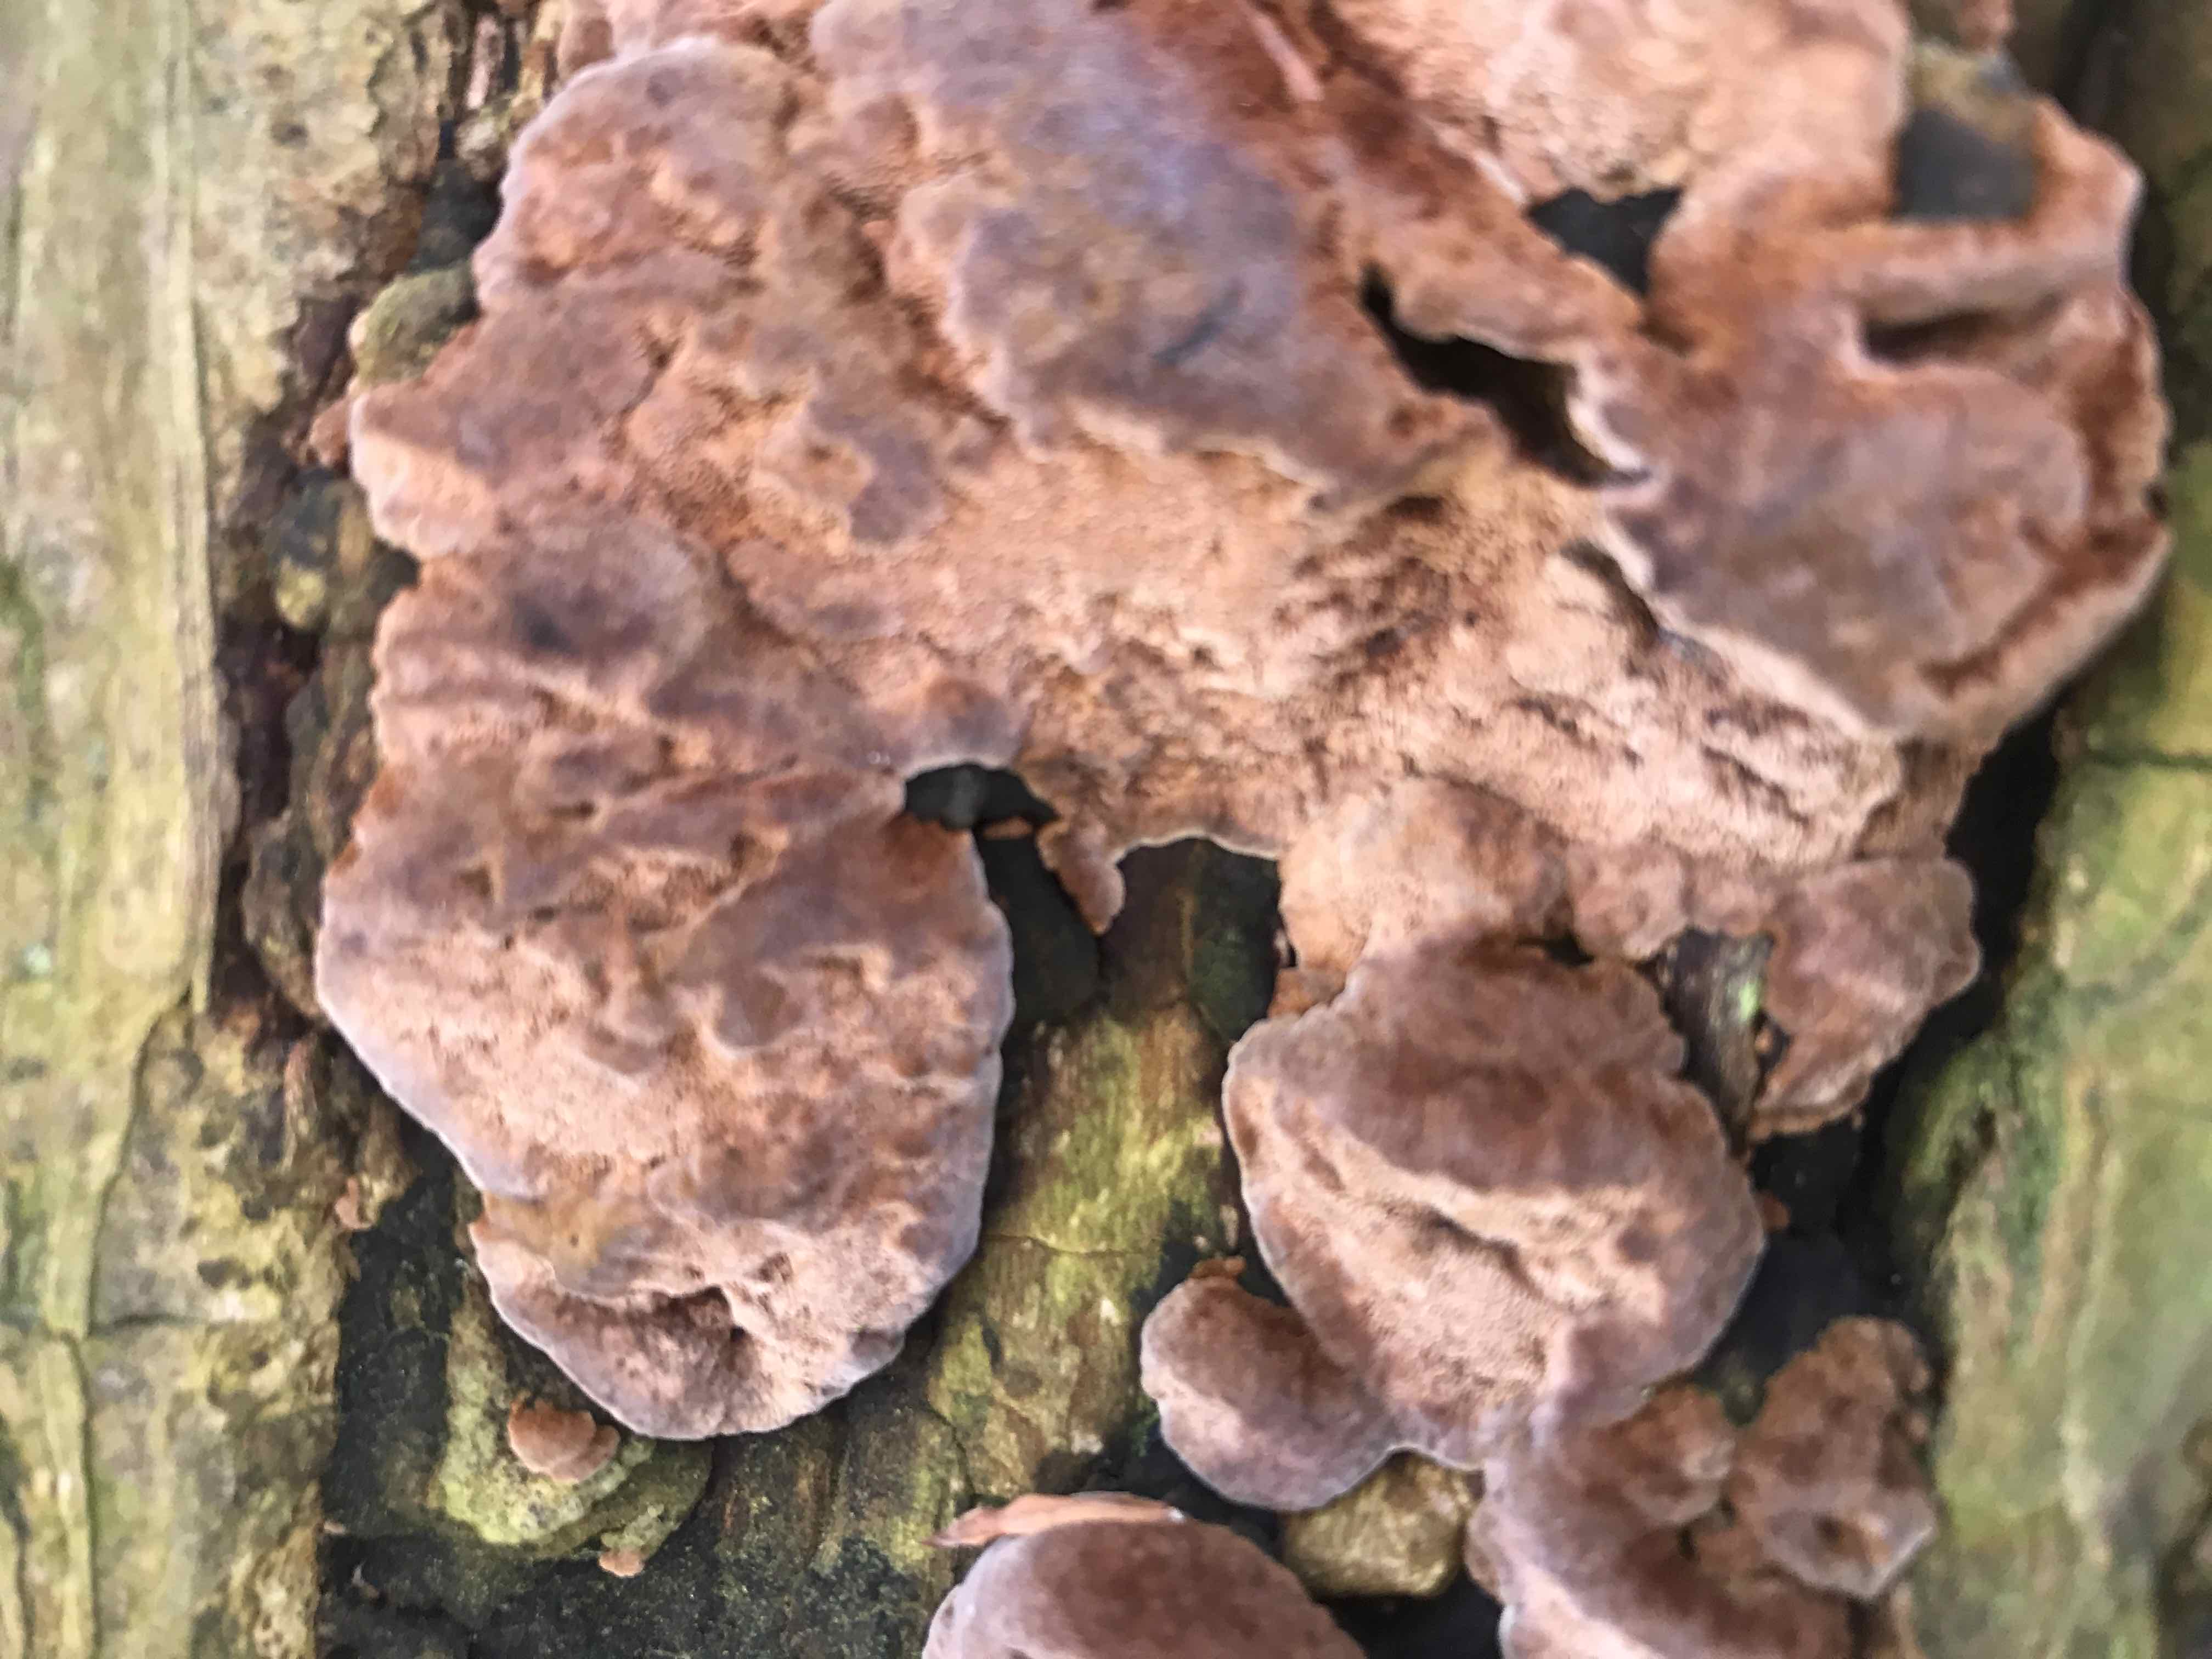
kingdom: Fungi
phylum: Basidiomycota
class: Agaricomycetes
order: Polyporales
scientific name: Polyporales
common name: poresvampordenen
